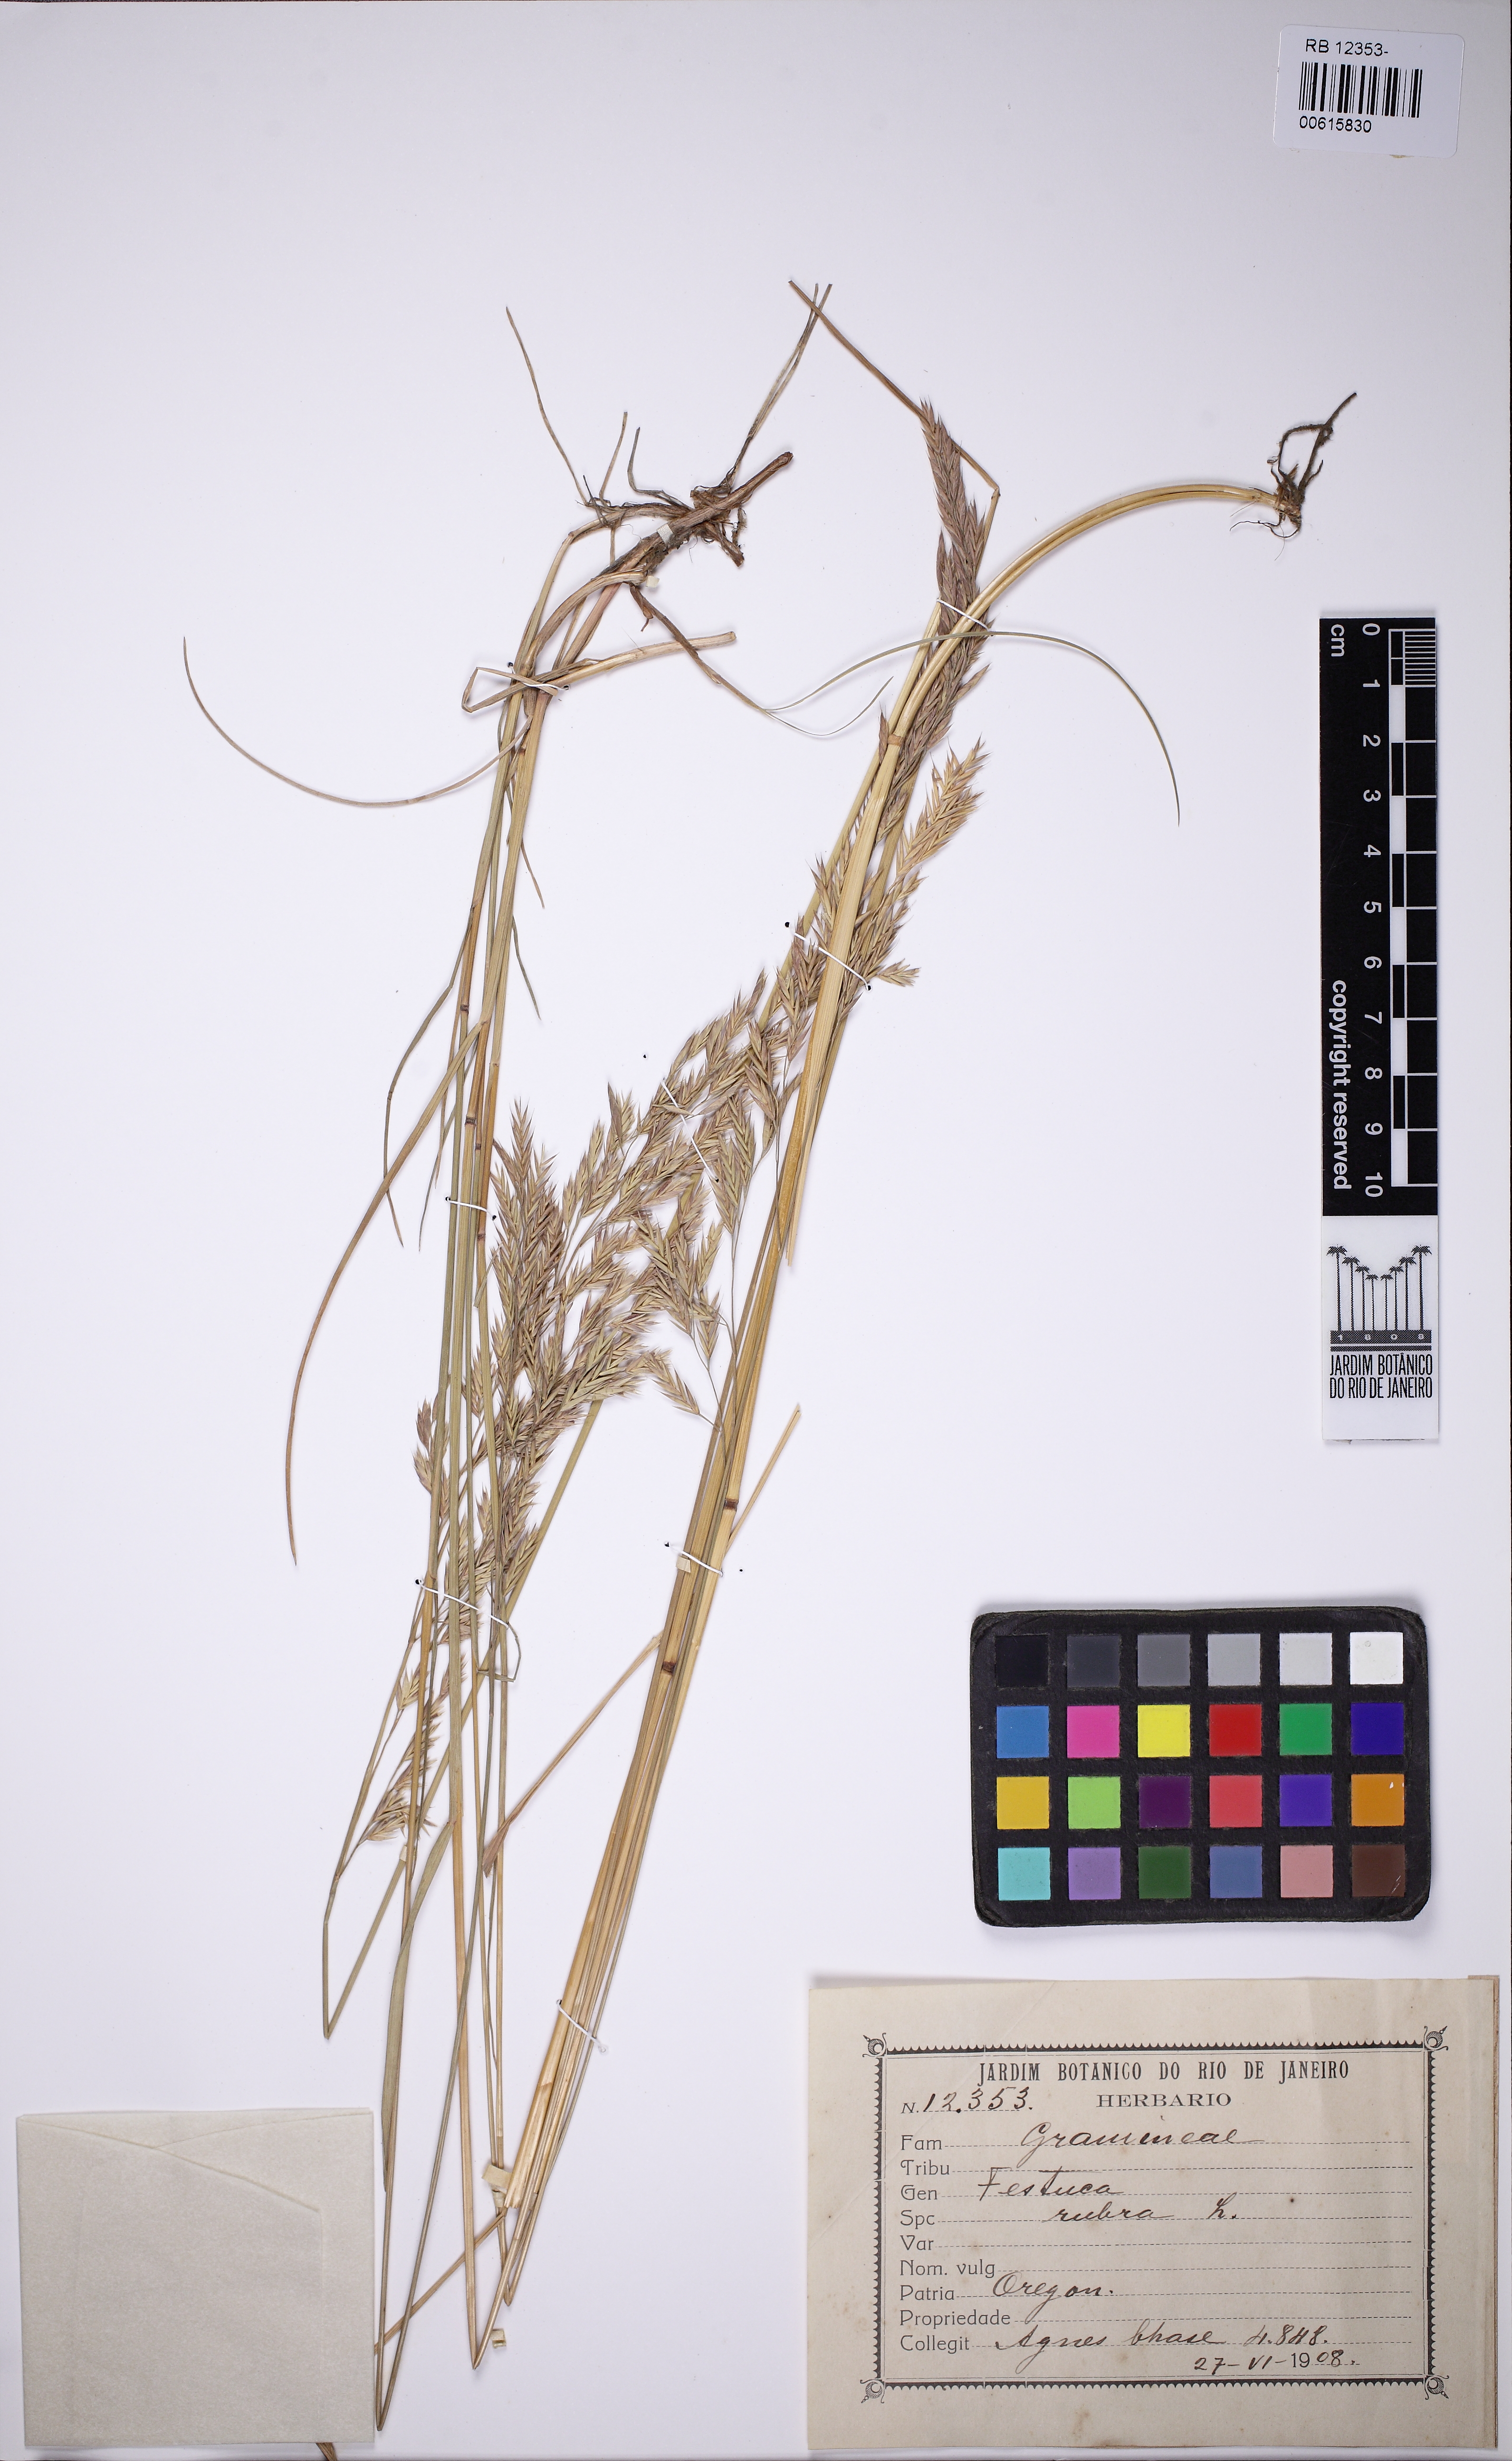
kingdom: Plantae
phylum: Tracheophyta
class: Liliopsida
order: Poales
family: Poaceae
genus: Festuca
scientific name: Festuca rubra
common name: Red fescue
